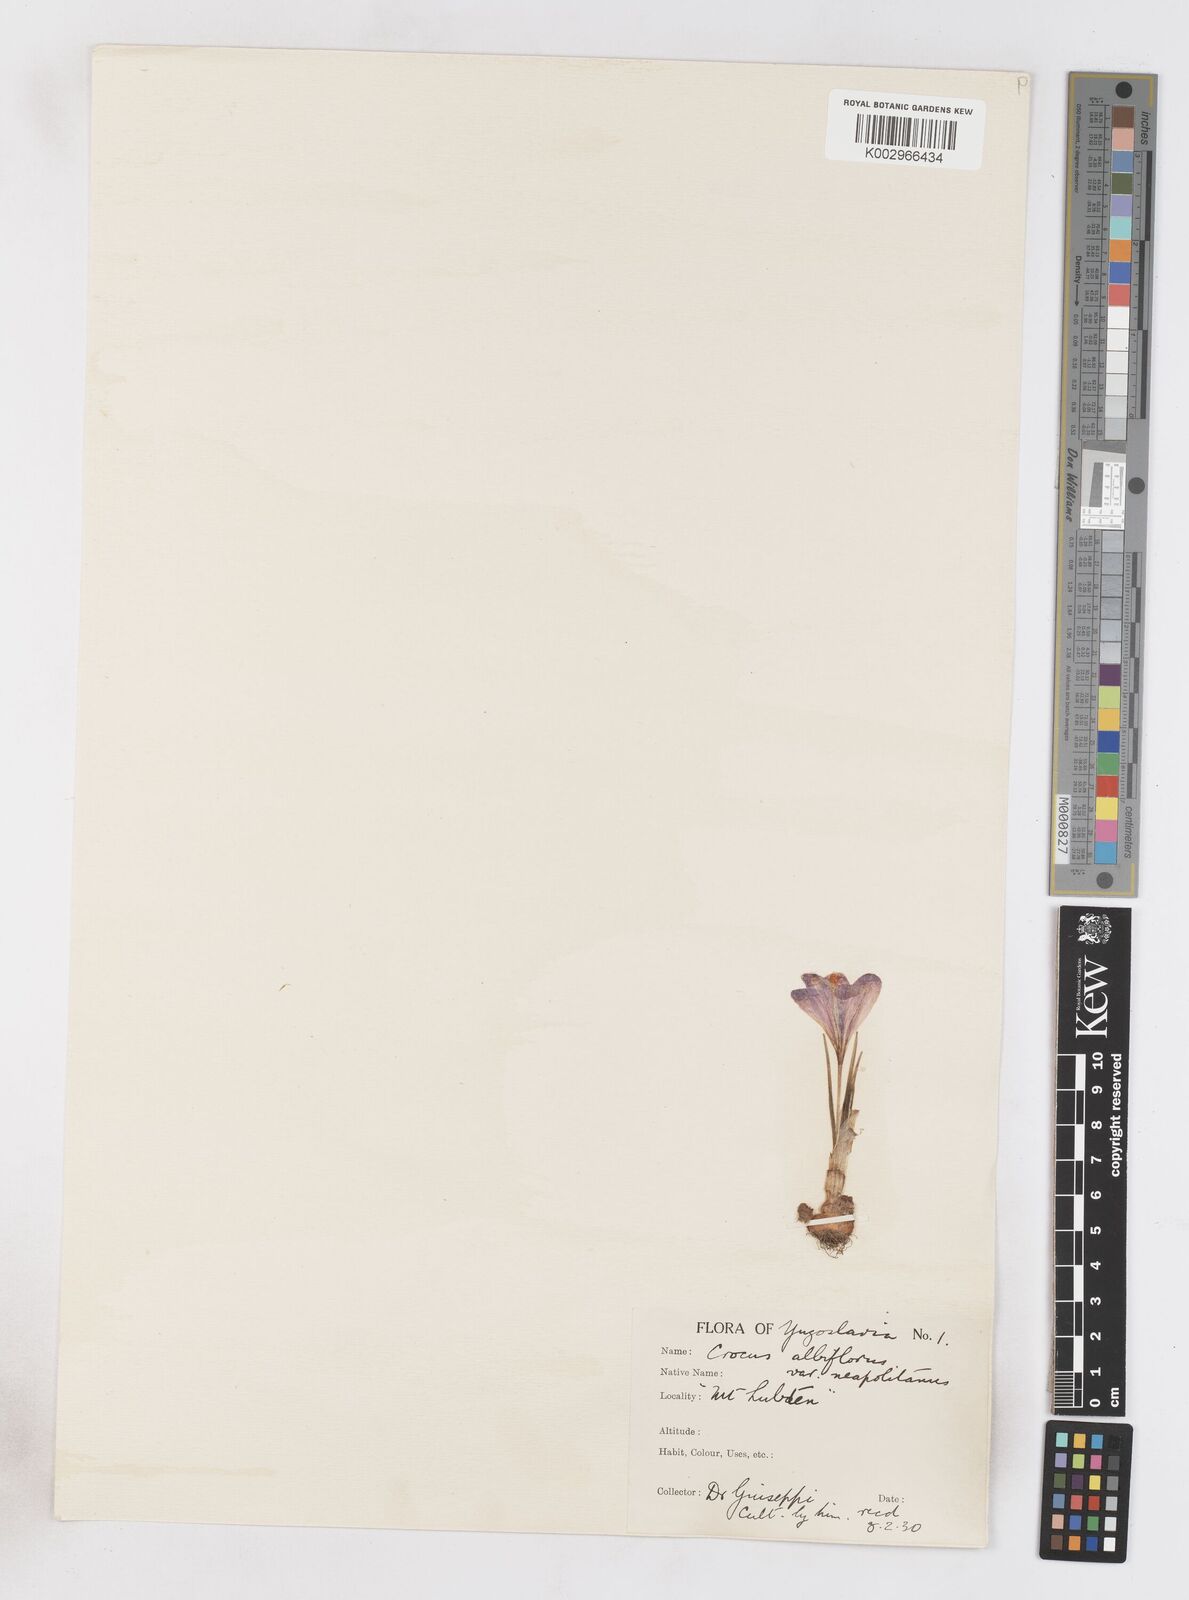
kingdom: Plantae
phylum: Tracheophyta
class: Liliopsida
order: Asparagales
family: Iridaceae
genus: Crocus
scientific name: Crocus vernus
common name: Spring crocus
